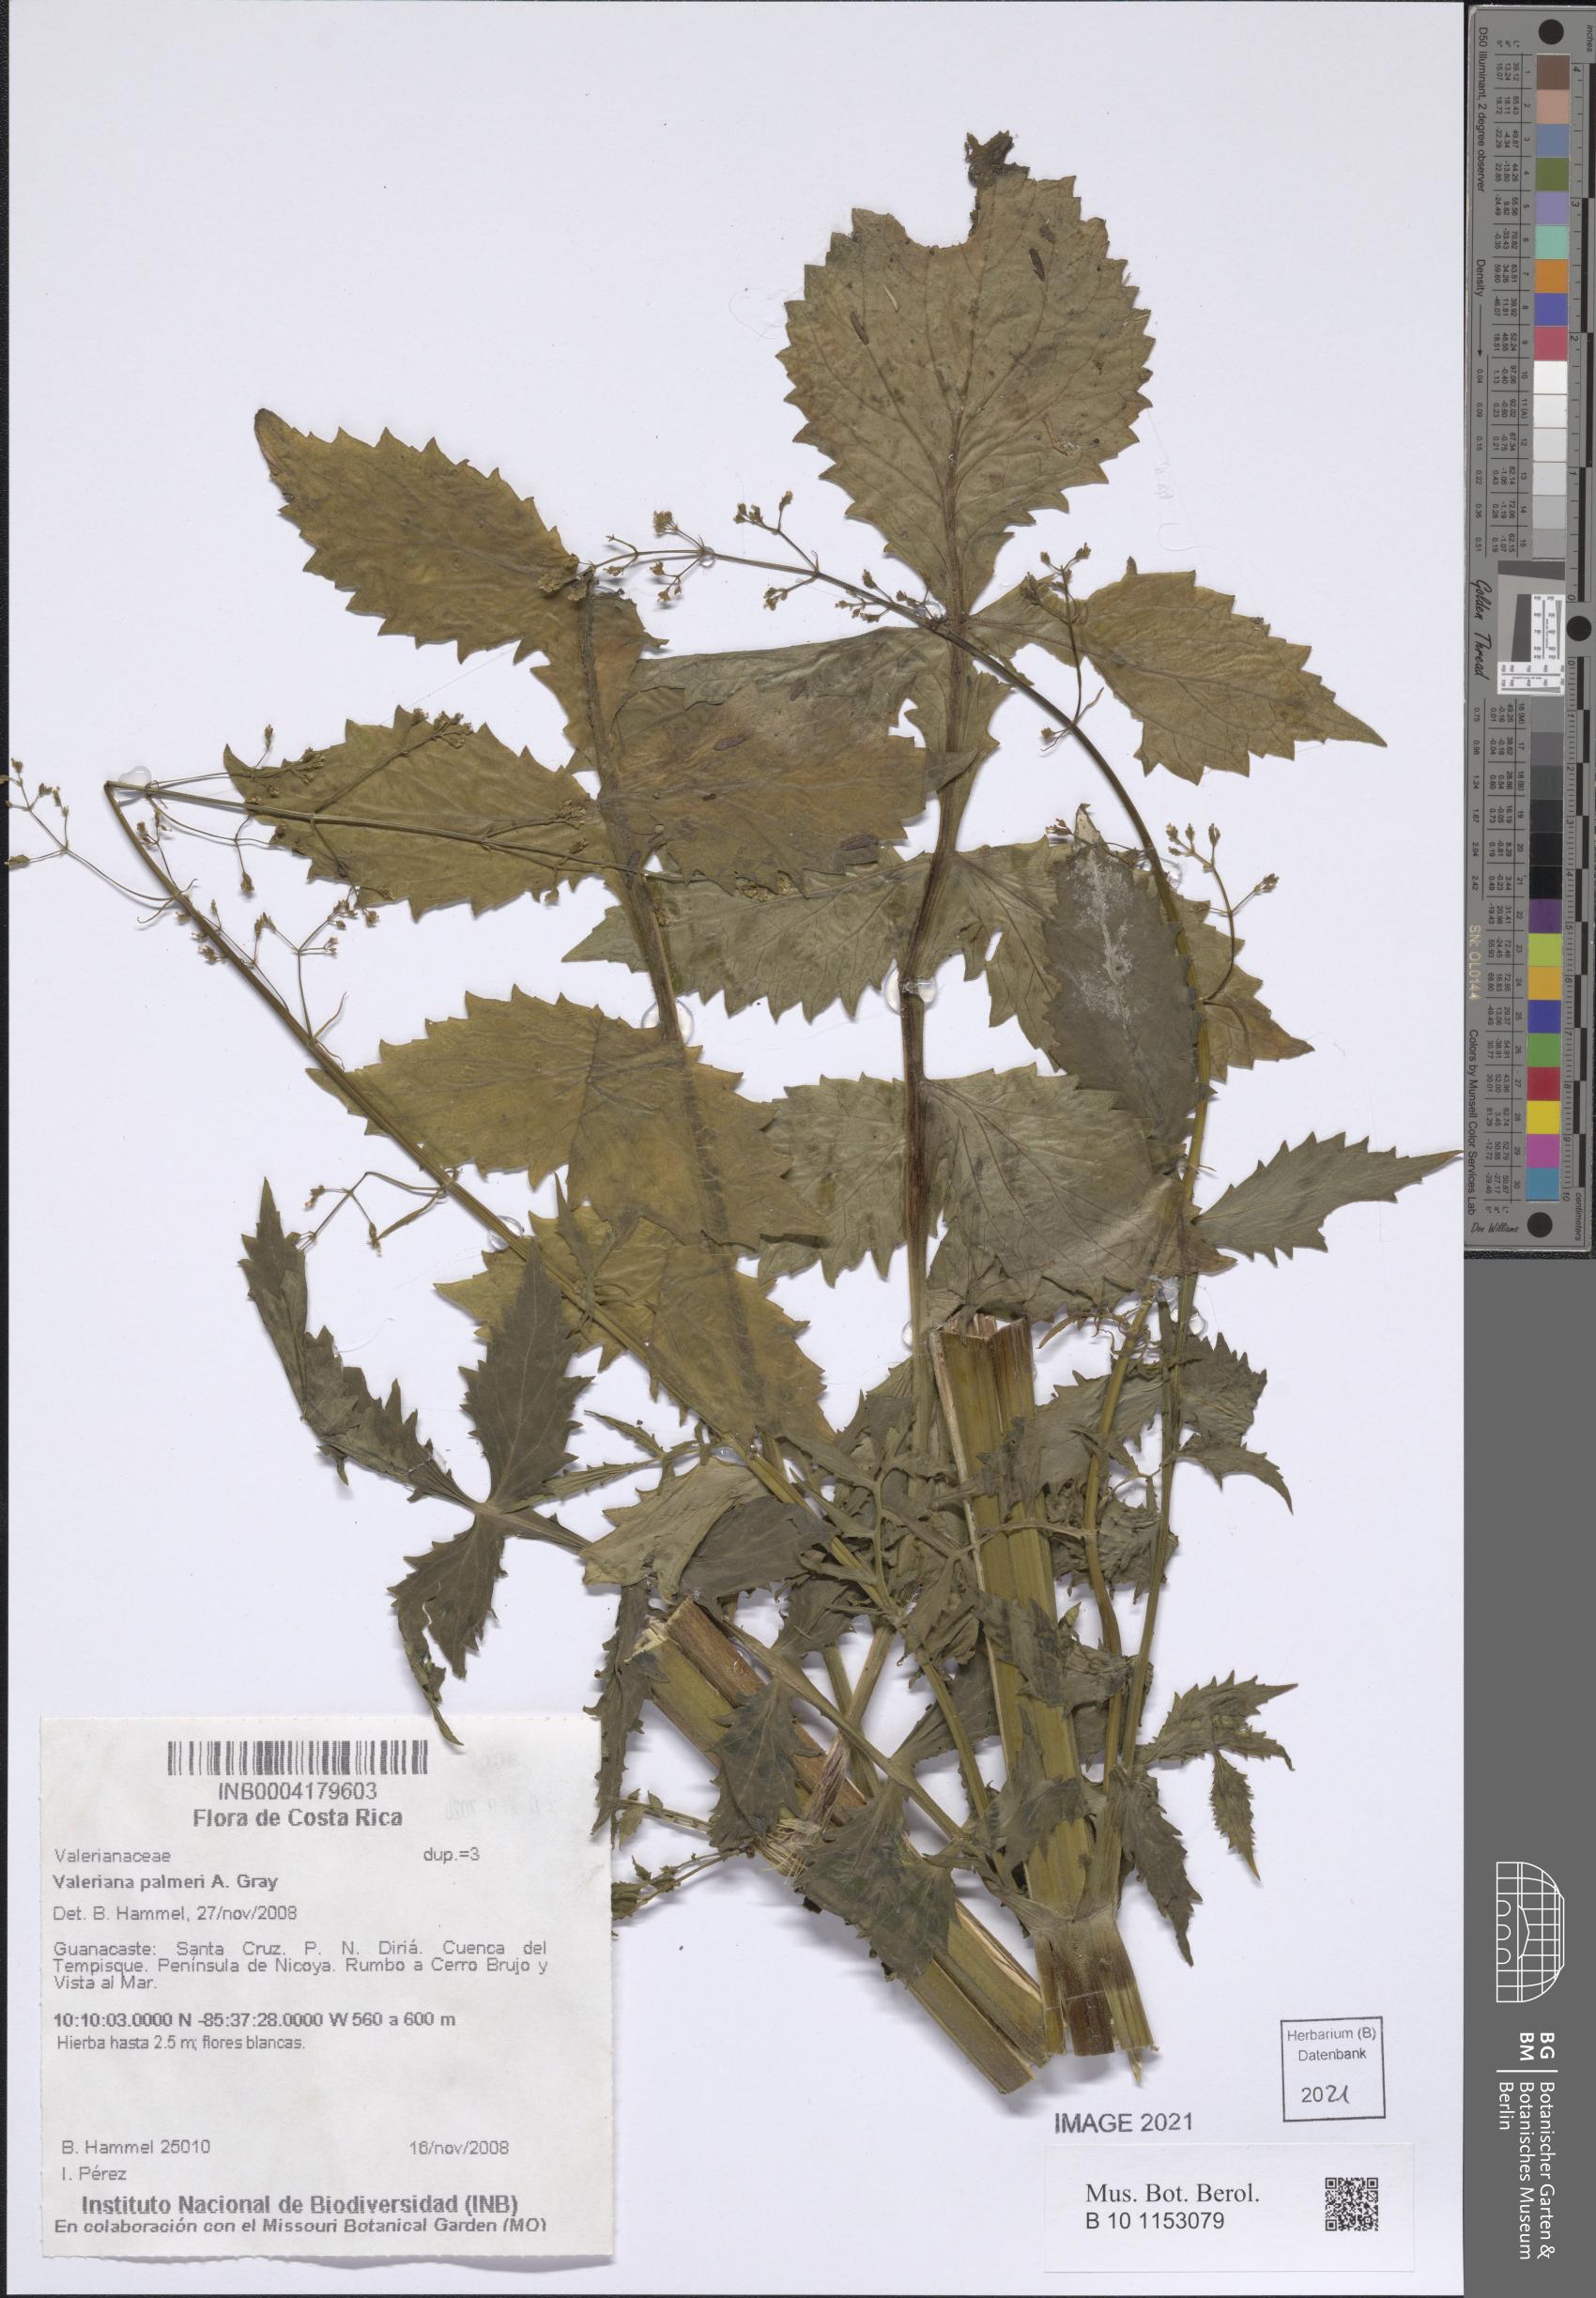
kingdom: Plantae
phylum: Tracheophyta
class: Magnoliopsida
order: Dipsacales
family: Caprifoliaceae
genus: Valeriana
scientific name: Valeriana palmeri
